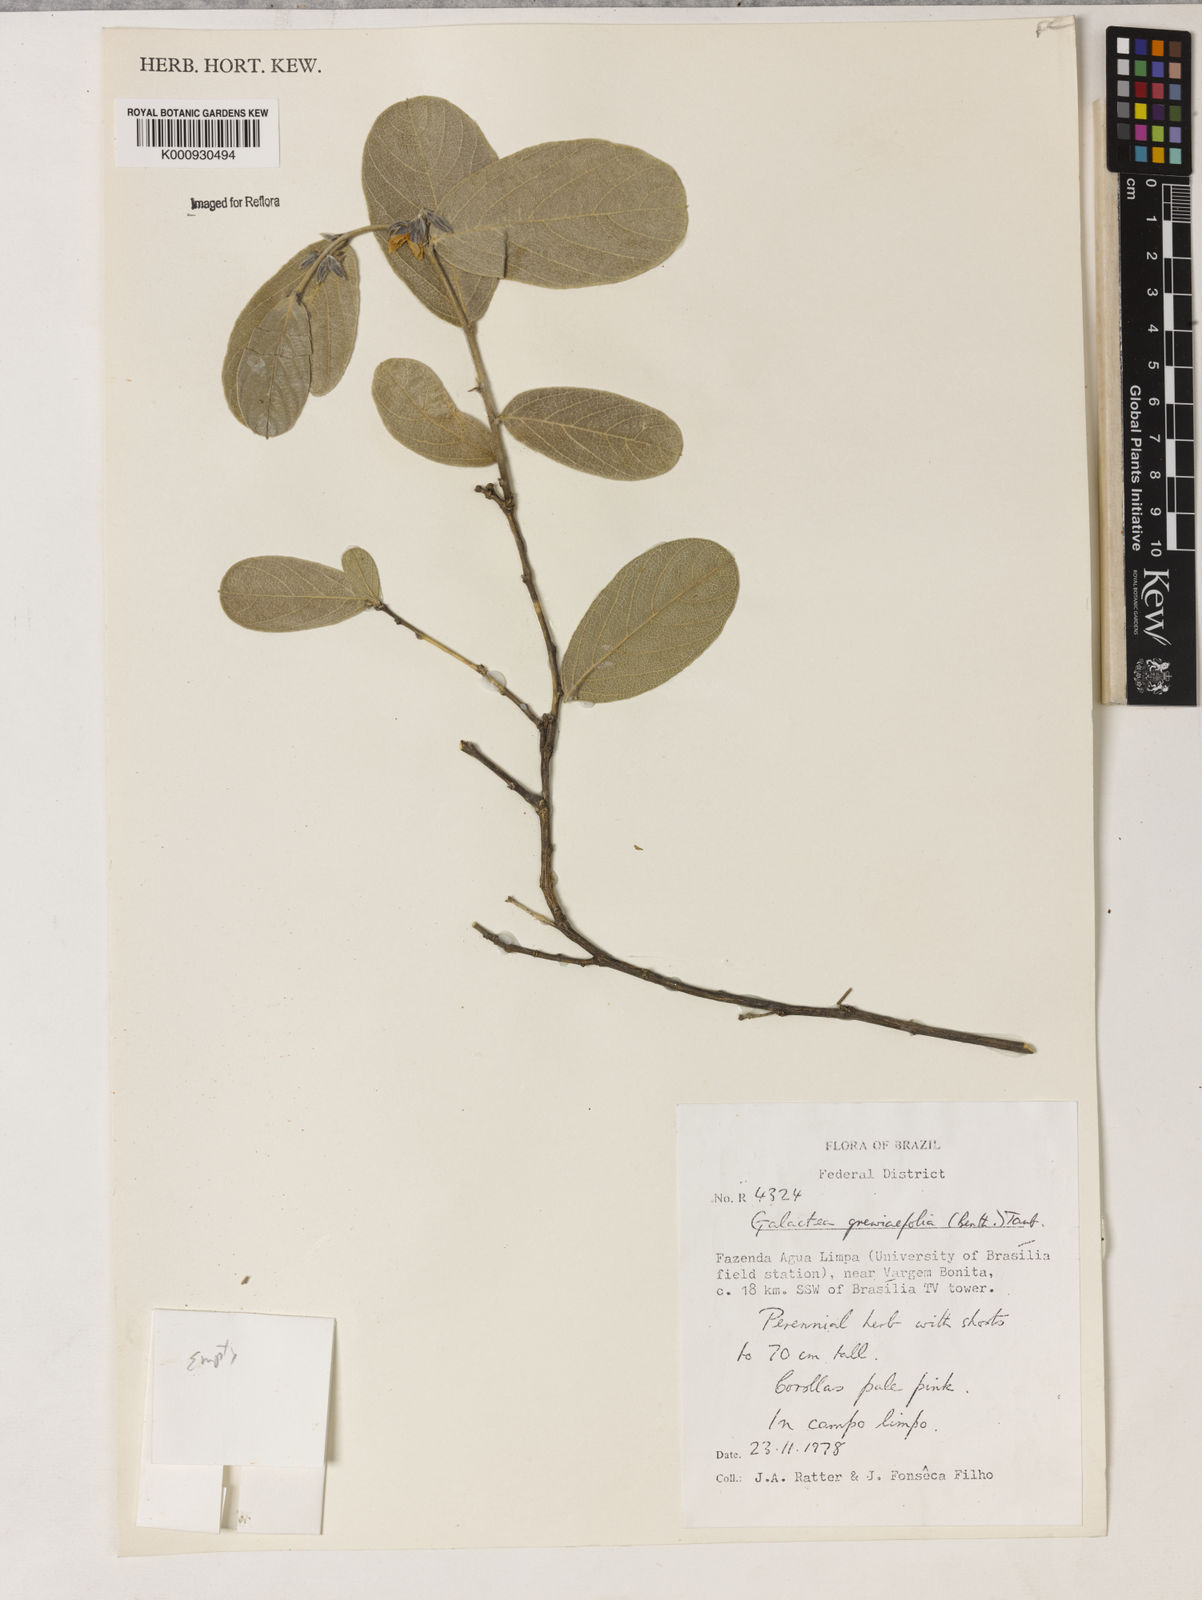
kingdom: Plantae
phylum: Tracheophyta
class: Magnoliopsida
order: Fabales
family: Fabaceae
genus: Galactia
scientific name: Galactia
